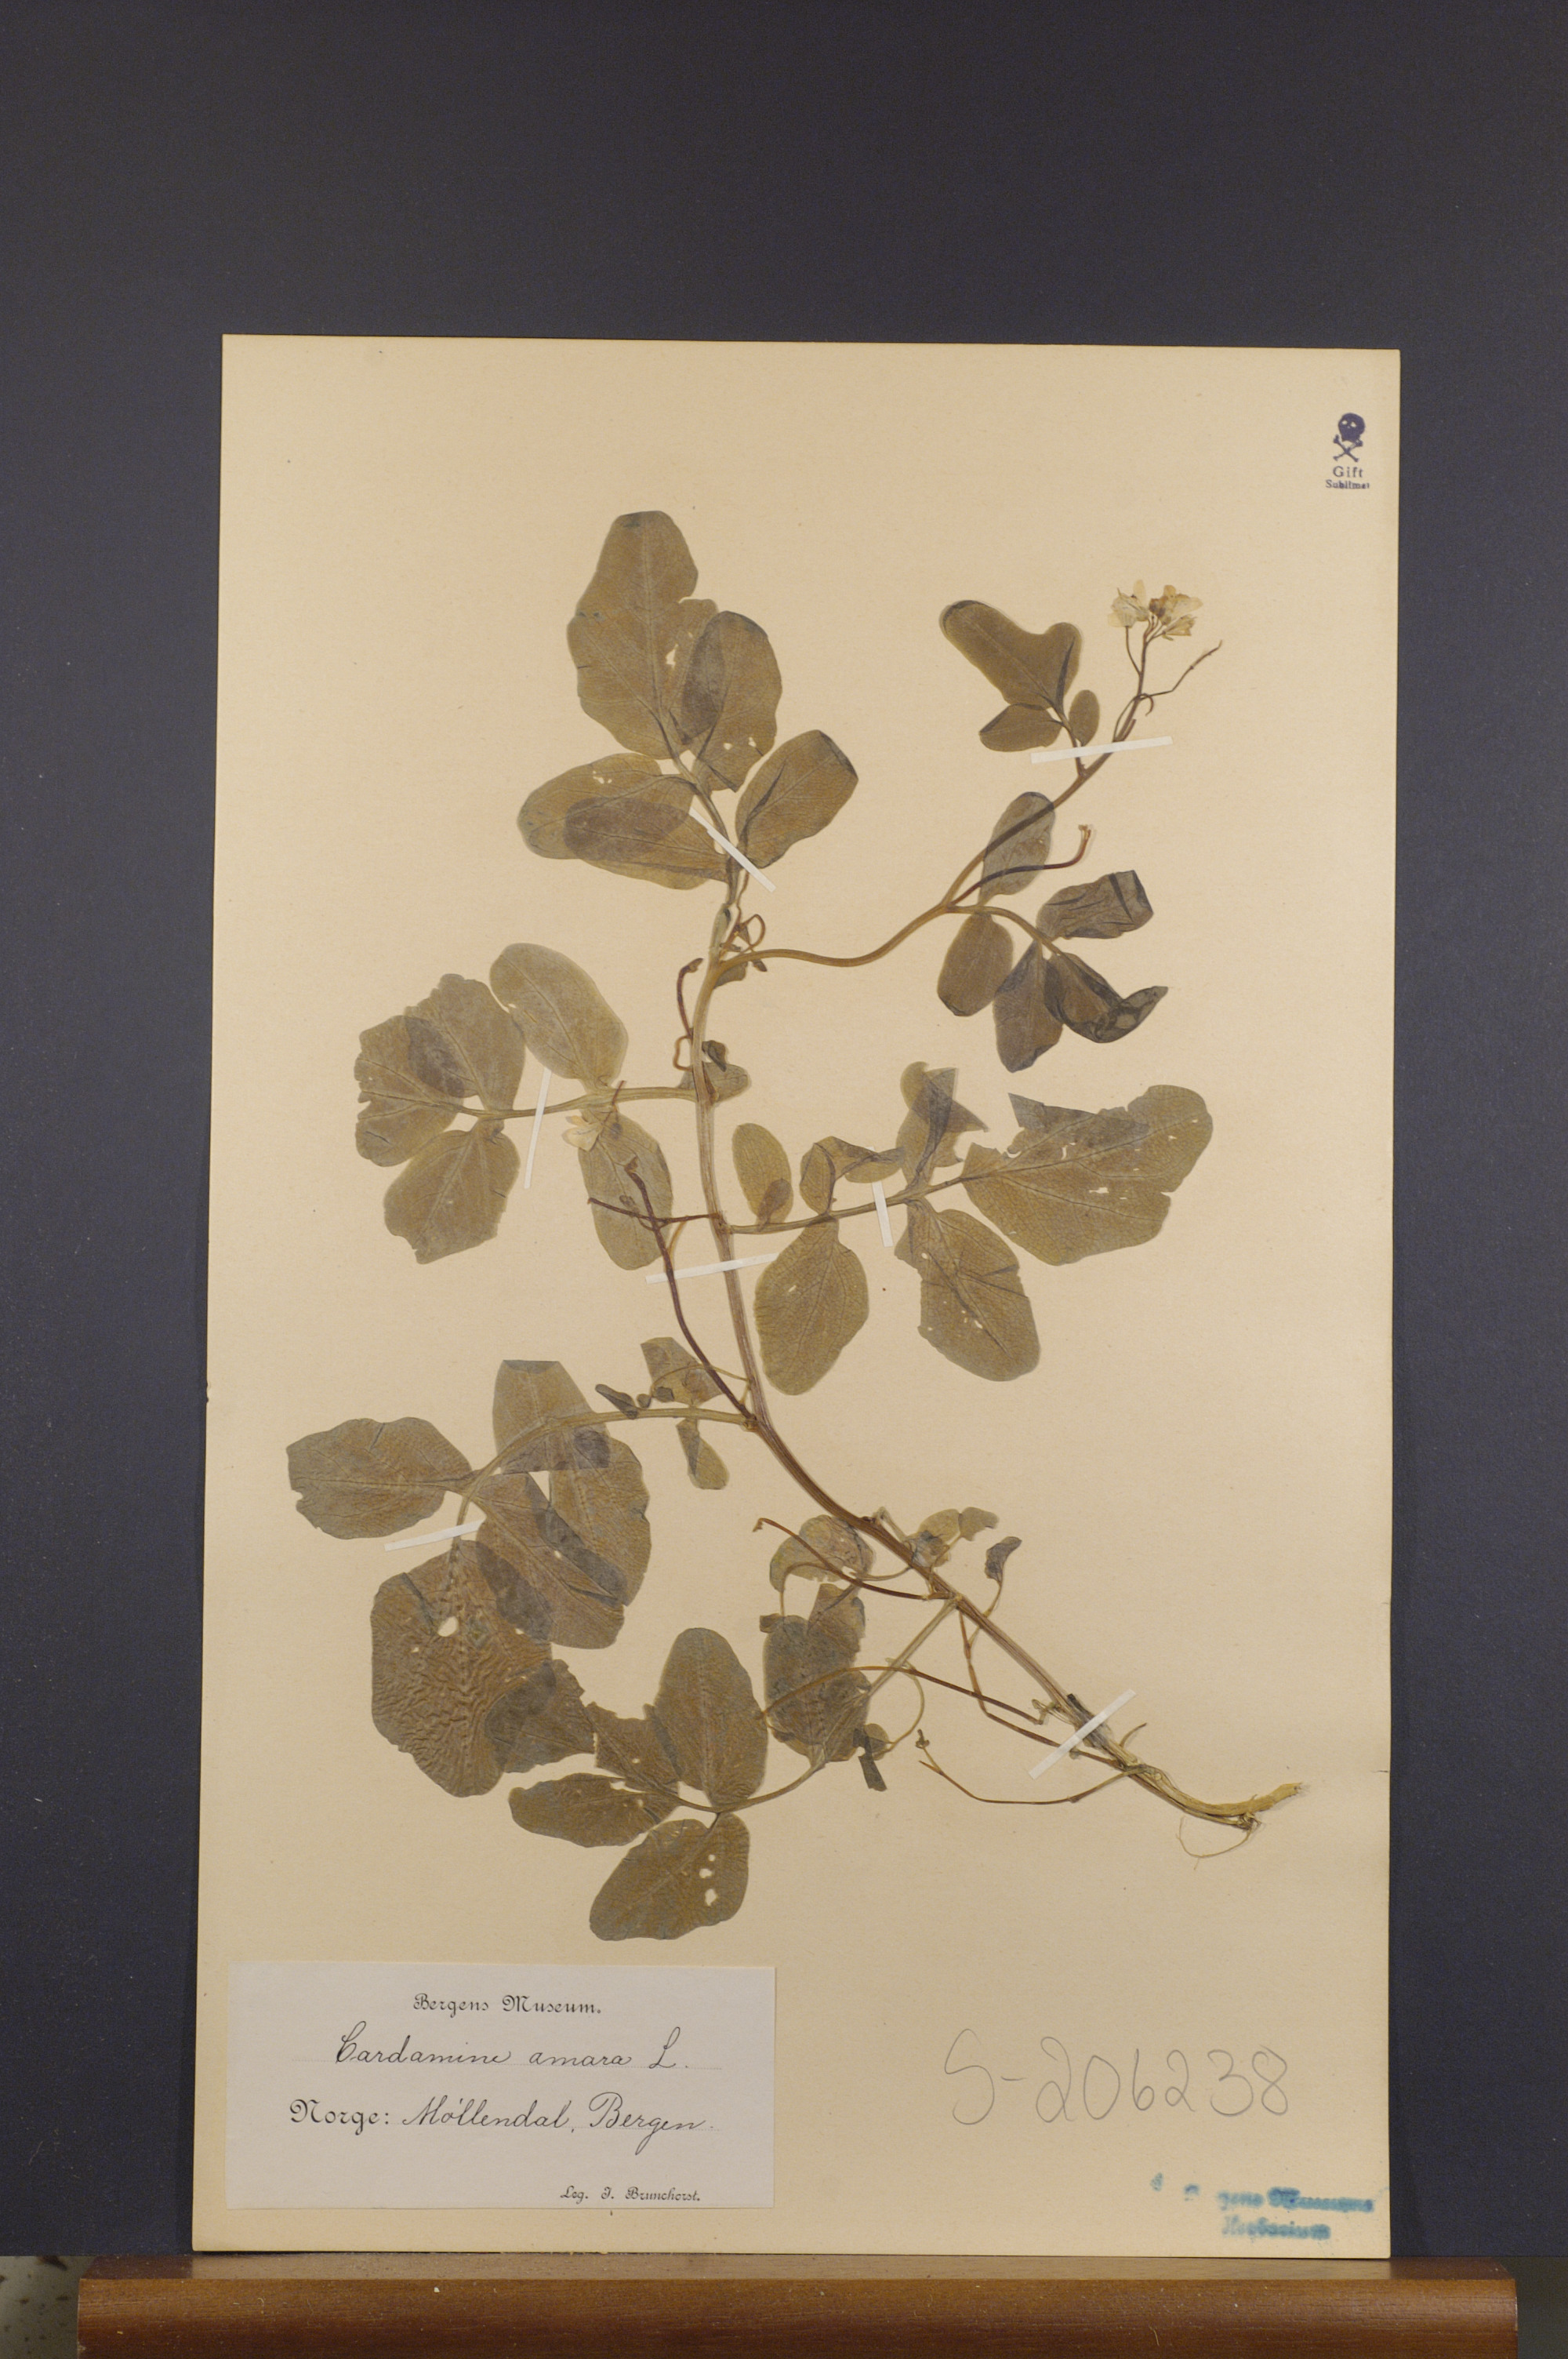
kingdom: Plantae
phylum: Tracheophyta
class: Magnoliopsida
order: Brassicales
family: Brassicaceae
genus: Cardamine
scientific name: Cardamine amara
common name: Large bitter-cress
